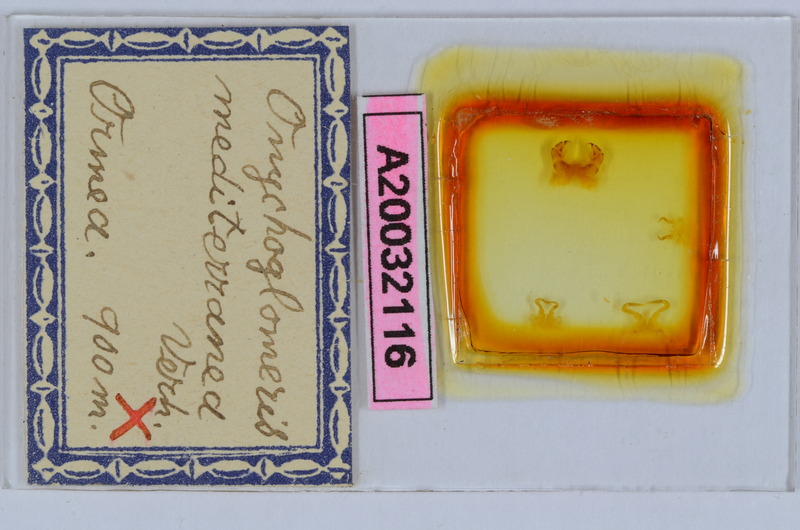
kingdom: Animalia
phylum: Arthropoda
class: Diplopoda
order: Glomerida
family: Glomeridae
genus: Onychoglomeris
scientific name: Onychoglomeris castanea
